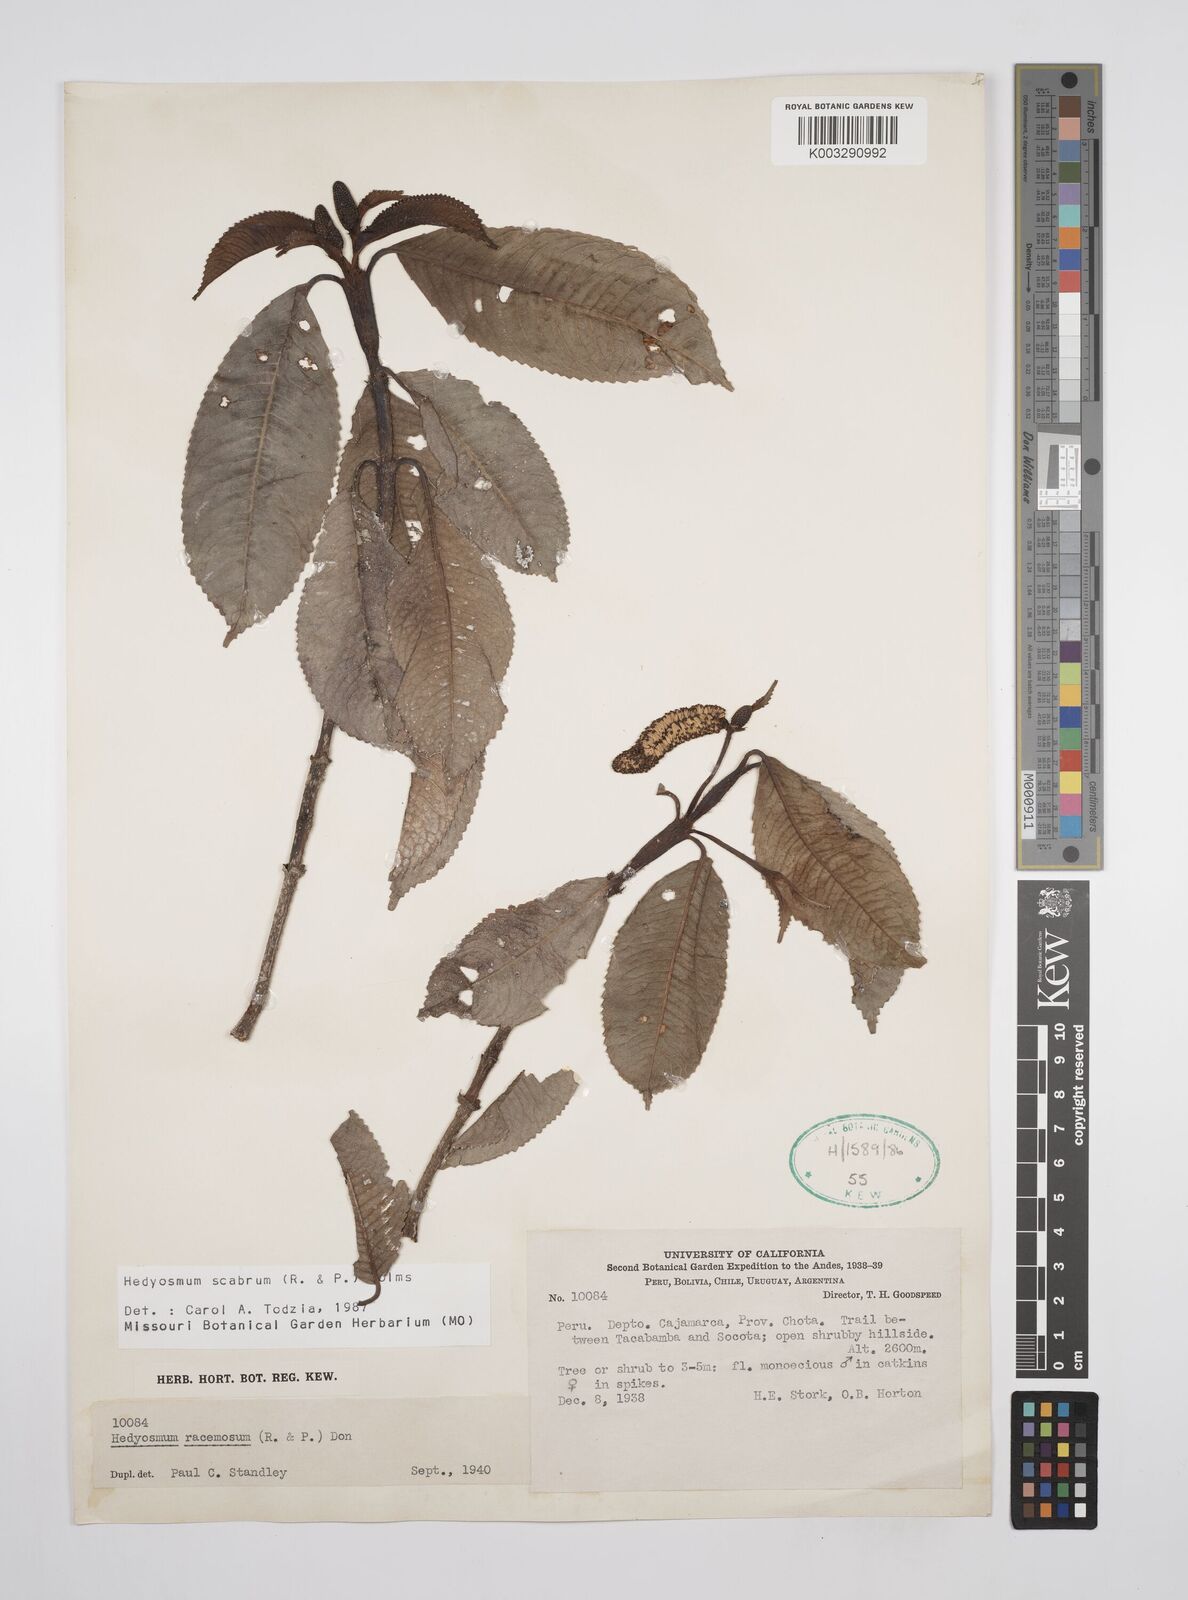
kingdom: Plantae
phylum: Tracheophyta
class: Magnoliopsida
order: Chloranthales
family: Chloranthaceae
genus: Hedyosmum
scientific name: Hedyosmum scabrum
